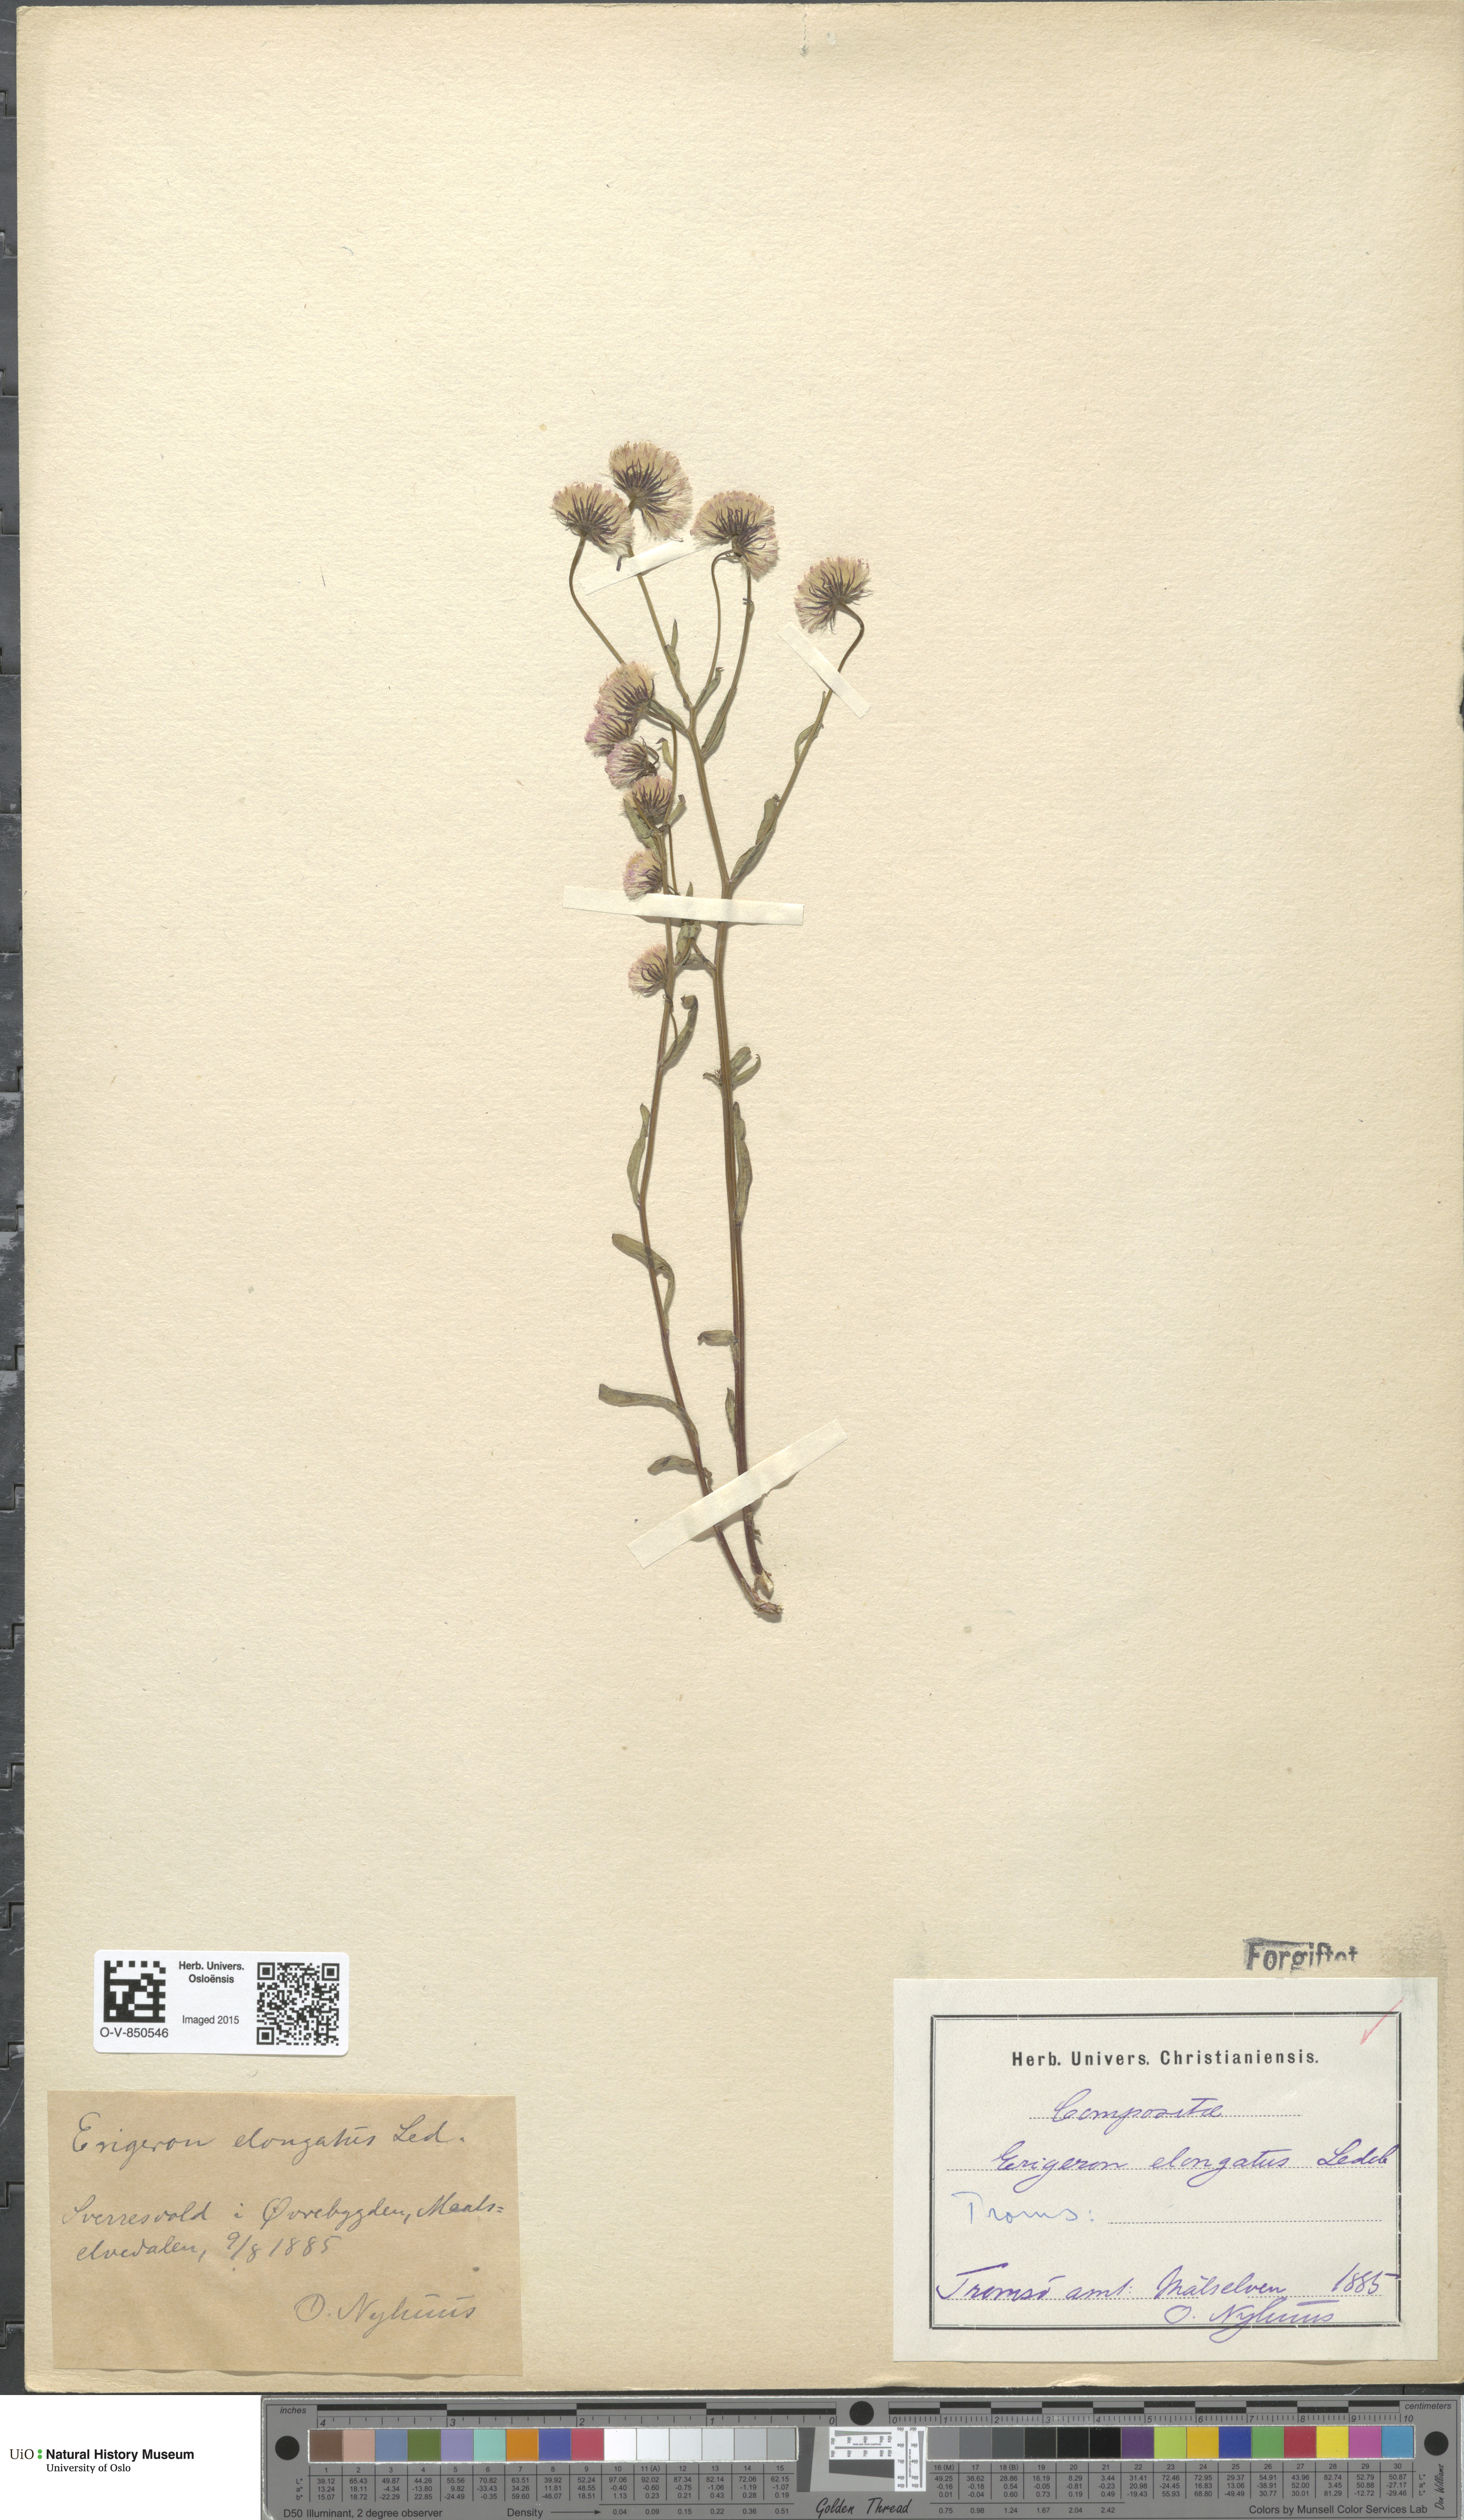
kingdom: Plantae
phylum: Tracheophyta
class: Magnoliopsida
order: Asterales
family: Asteraceae
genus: Erigeron
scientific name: Erigeron politus
